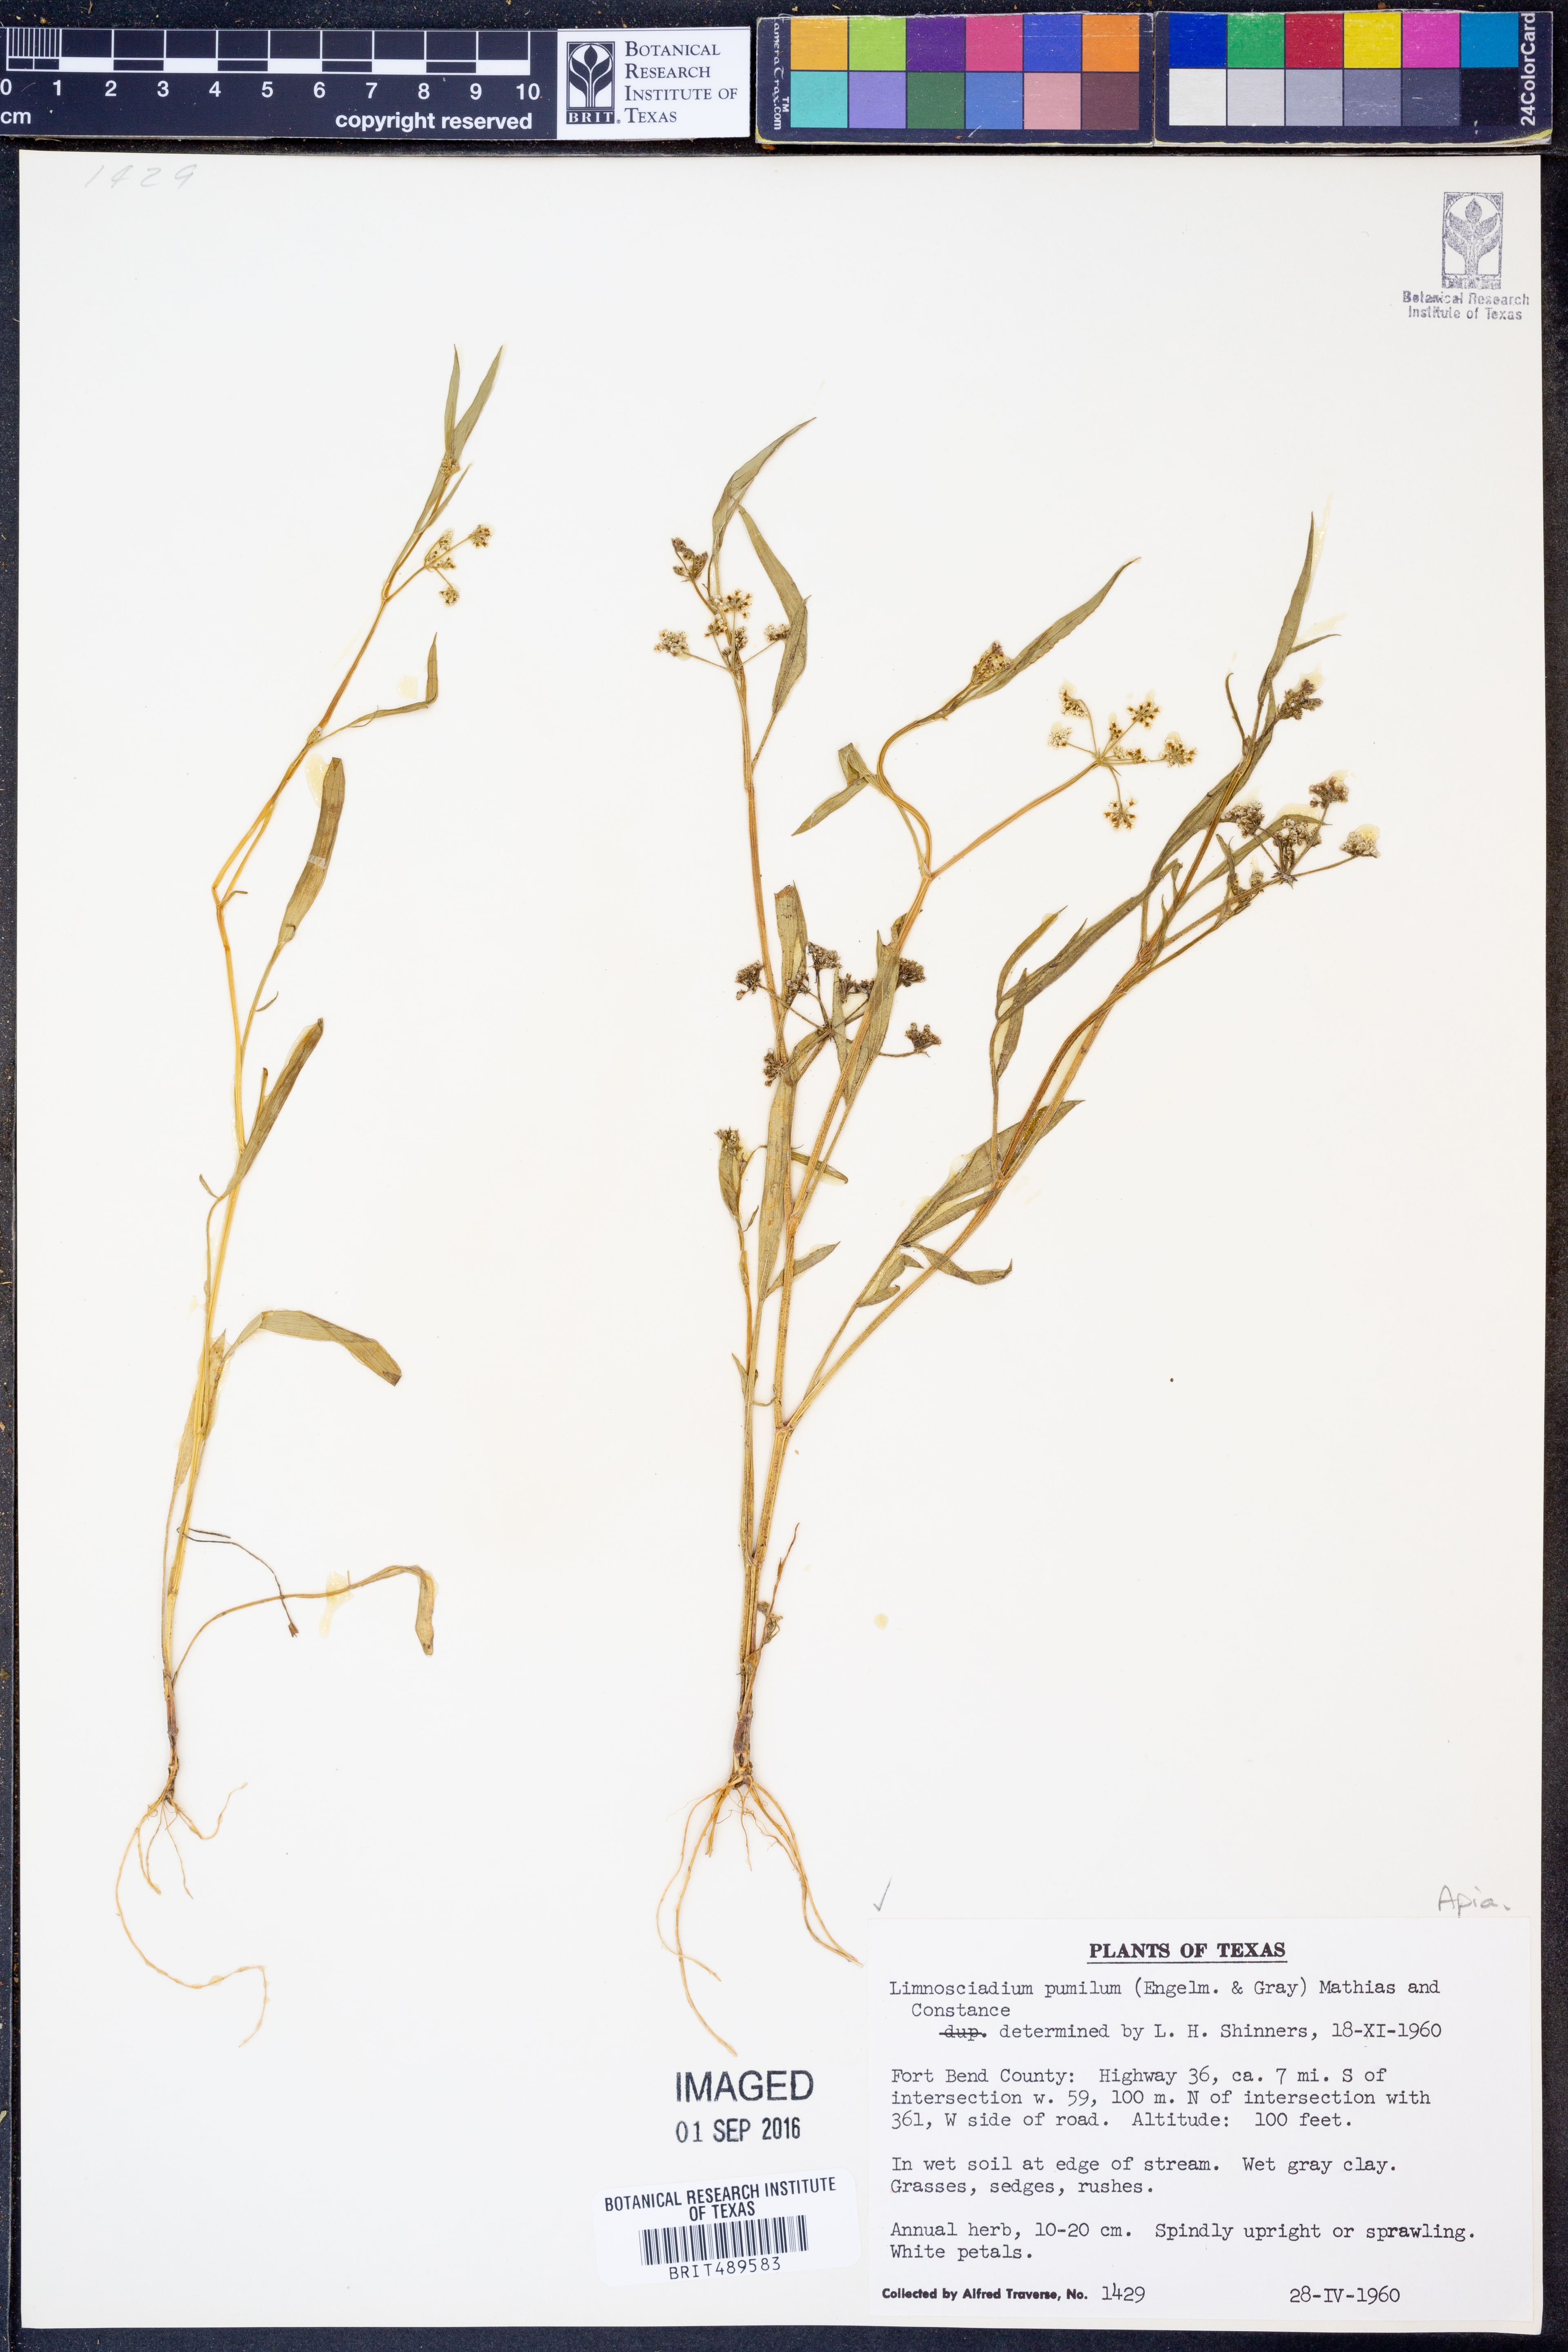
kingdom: Plantae
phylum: Tracheophyta
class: Magnoliopsida
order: Apiales
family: Apiaceae
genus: Limnosciadium
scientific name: Limnosciadium pinnatum
